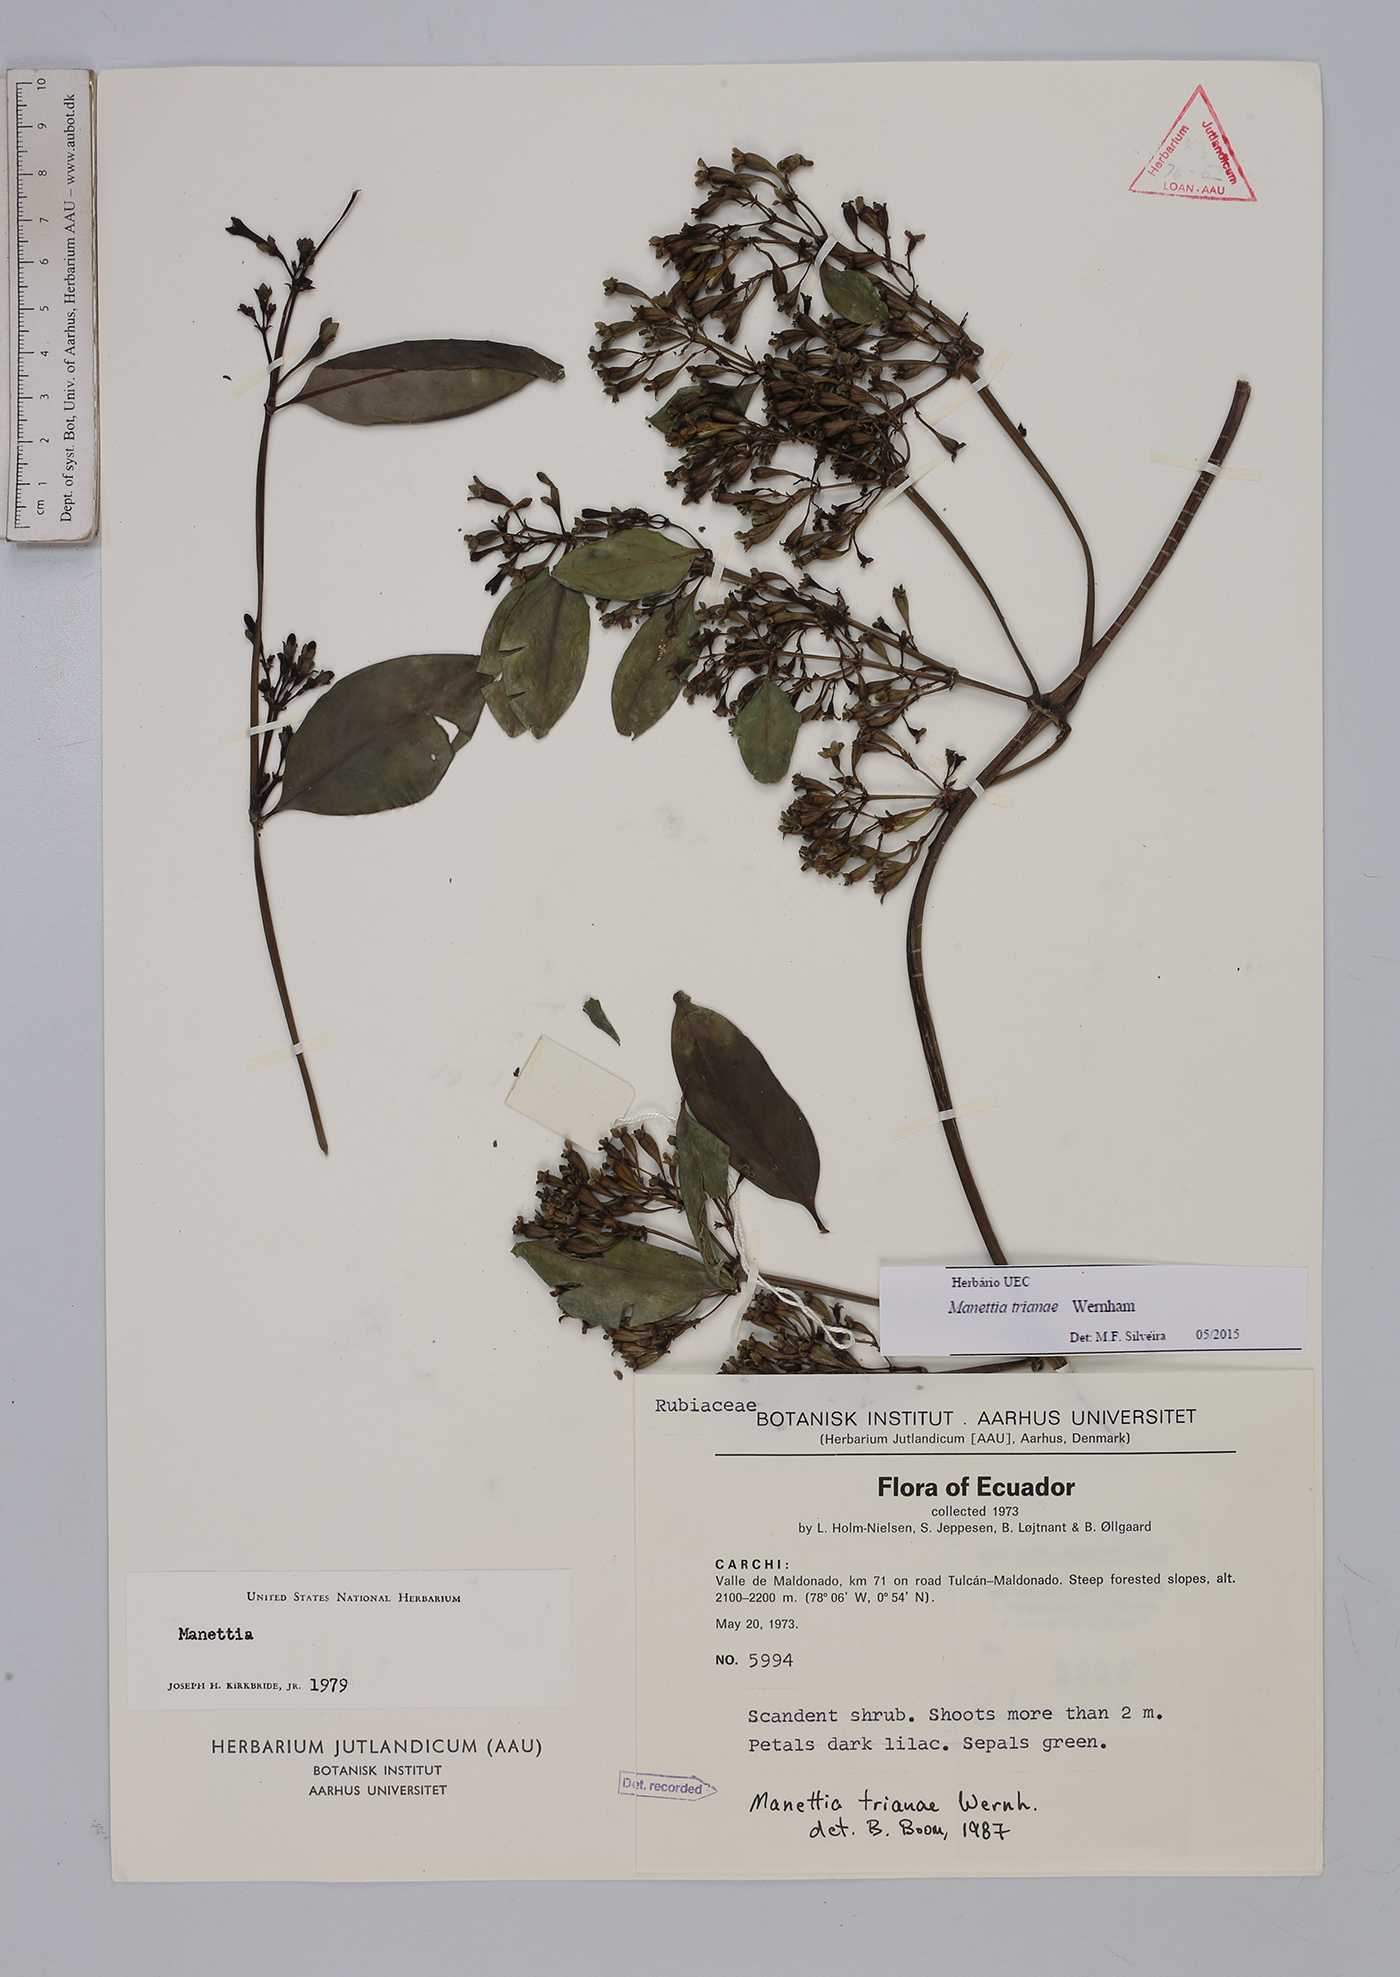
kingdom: Plantae
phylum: Tracheophyta
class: Magnoliopsida
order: Gentianales
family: Rubiaceae
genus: Manettia
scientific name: Manettia trianae
